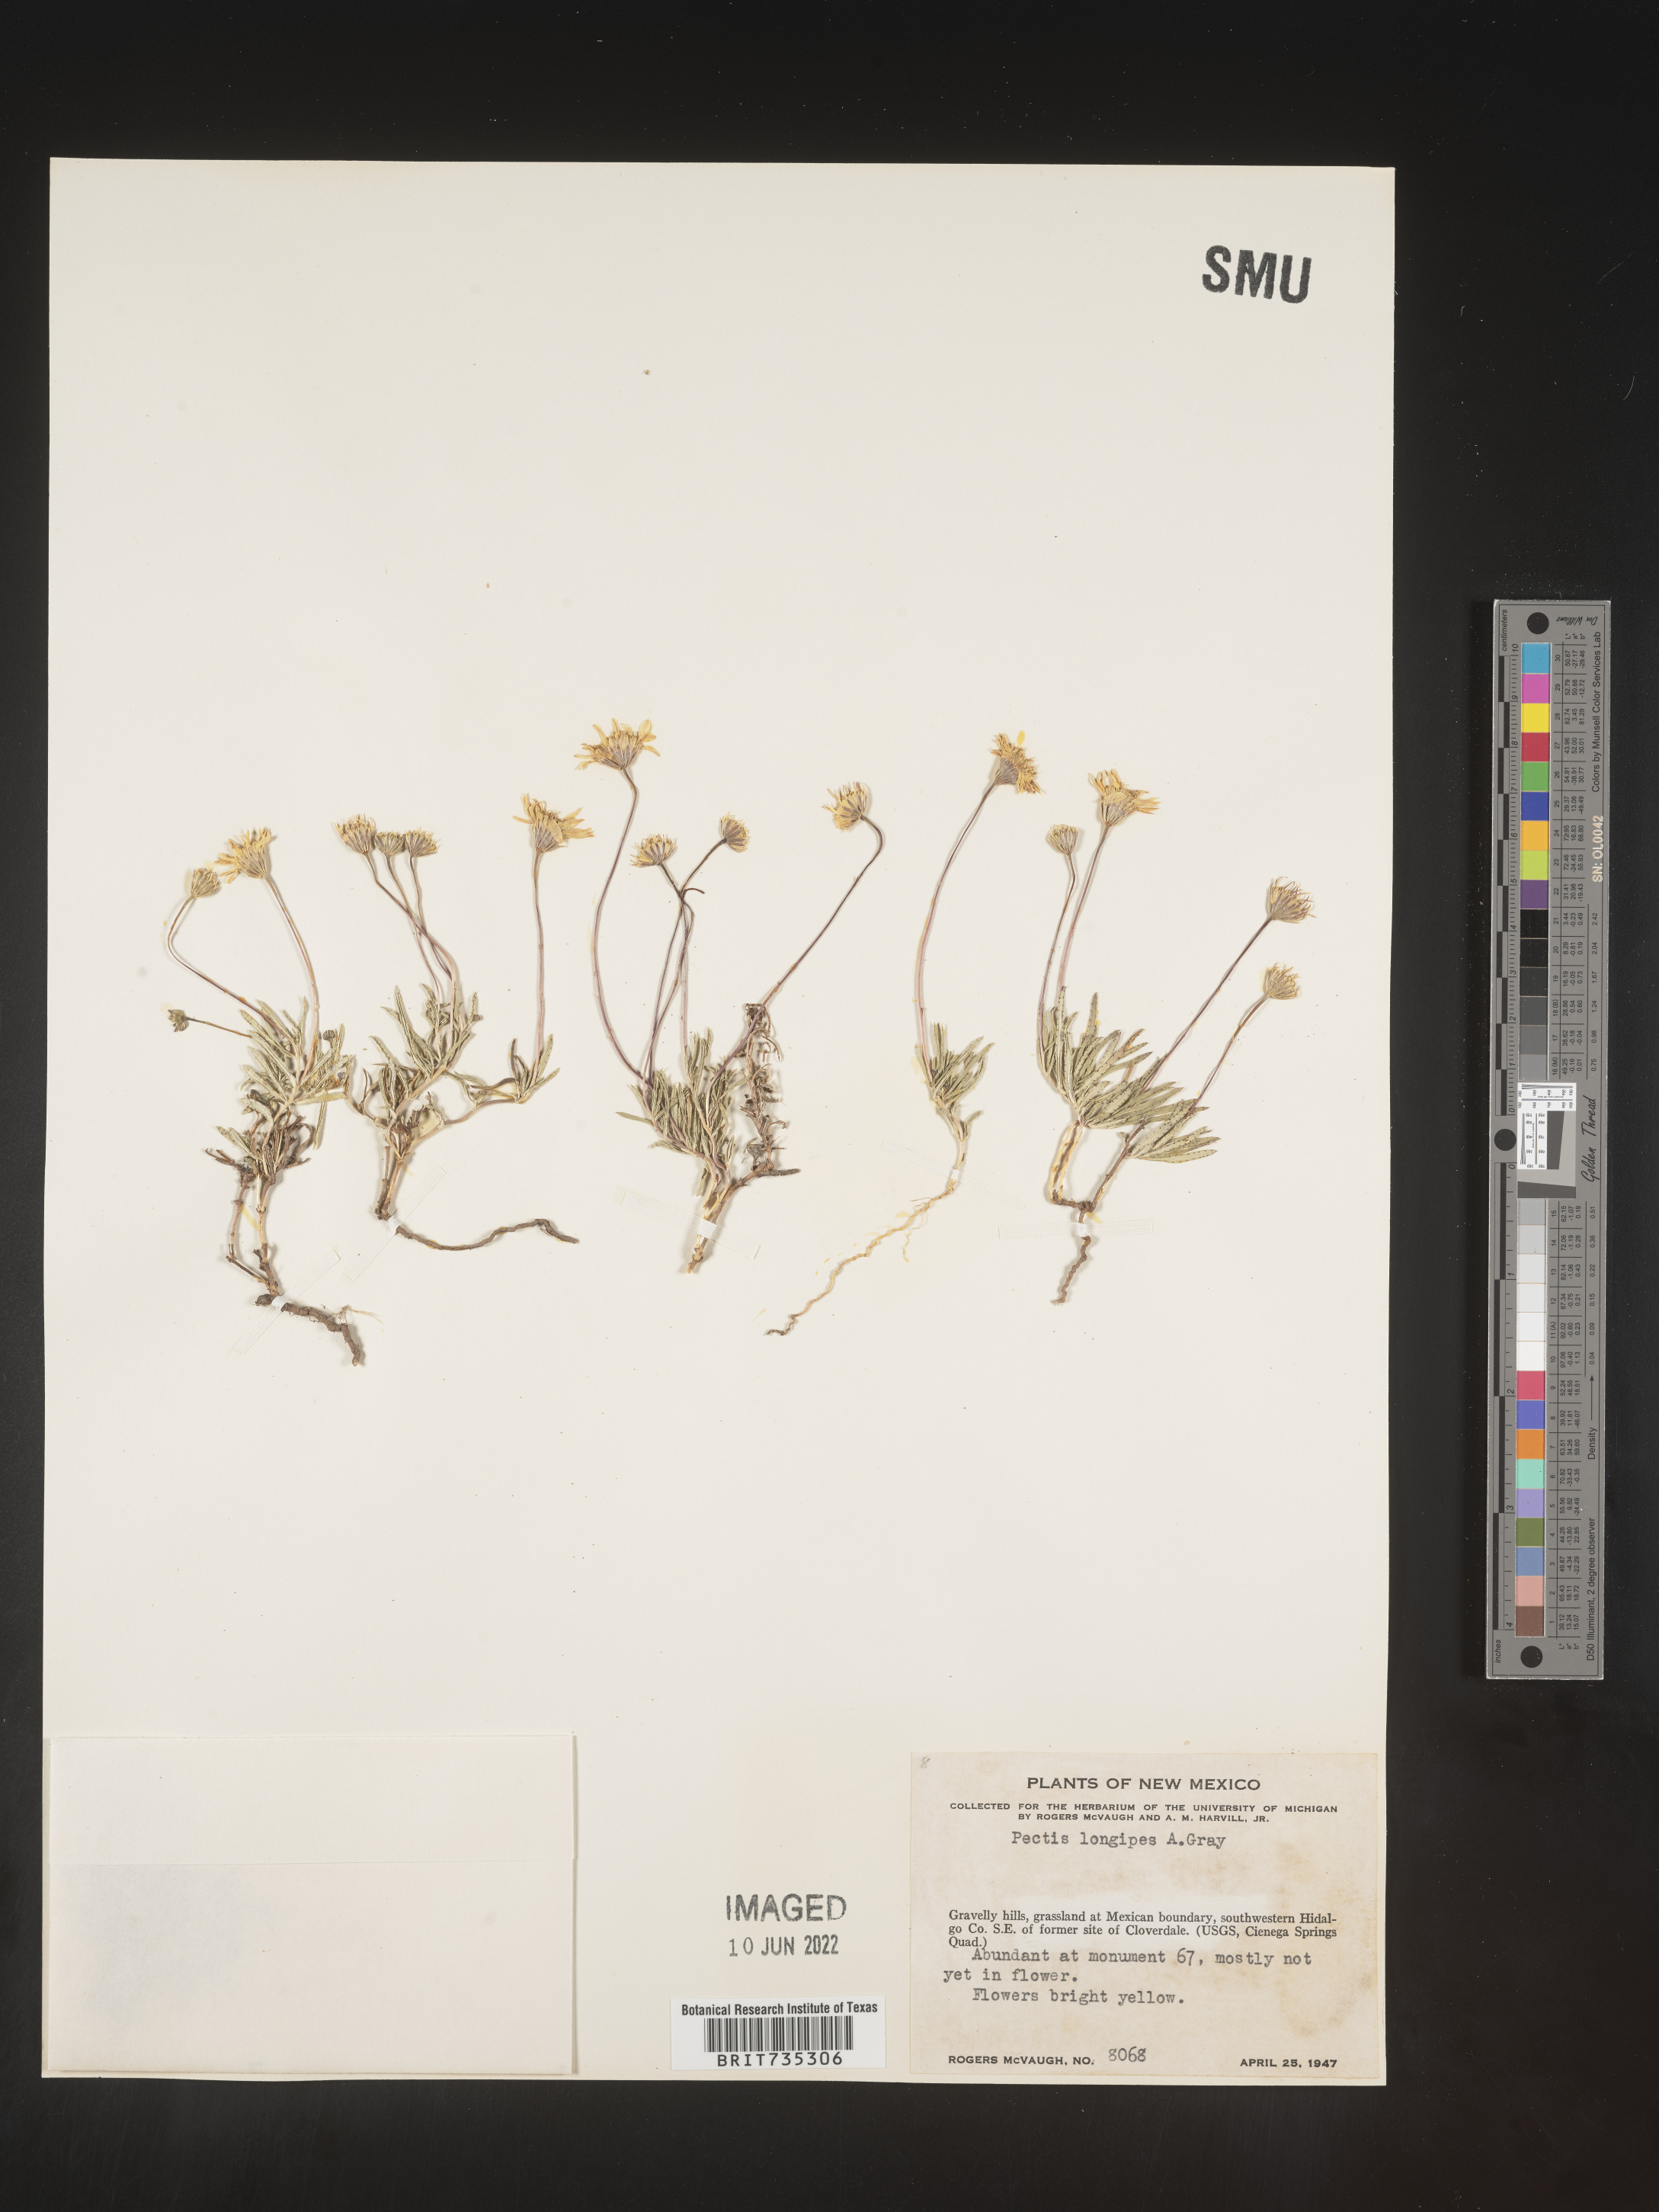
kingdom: Plantae
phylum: Tracheophyta
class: Magnoliopsida
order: Asterales
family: Asteraceae
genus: Pectis
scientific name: Pectis longipes
